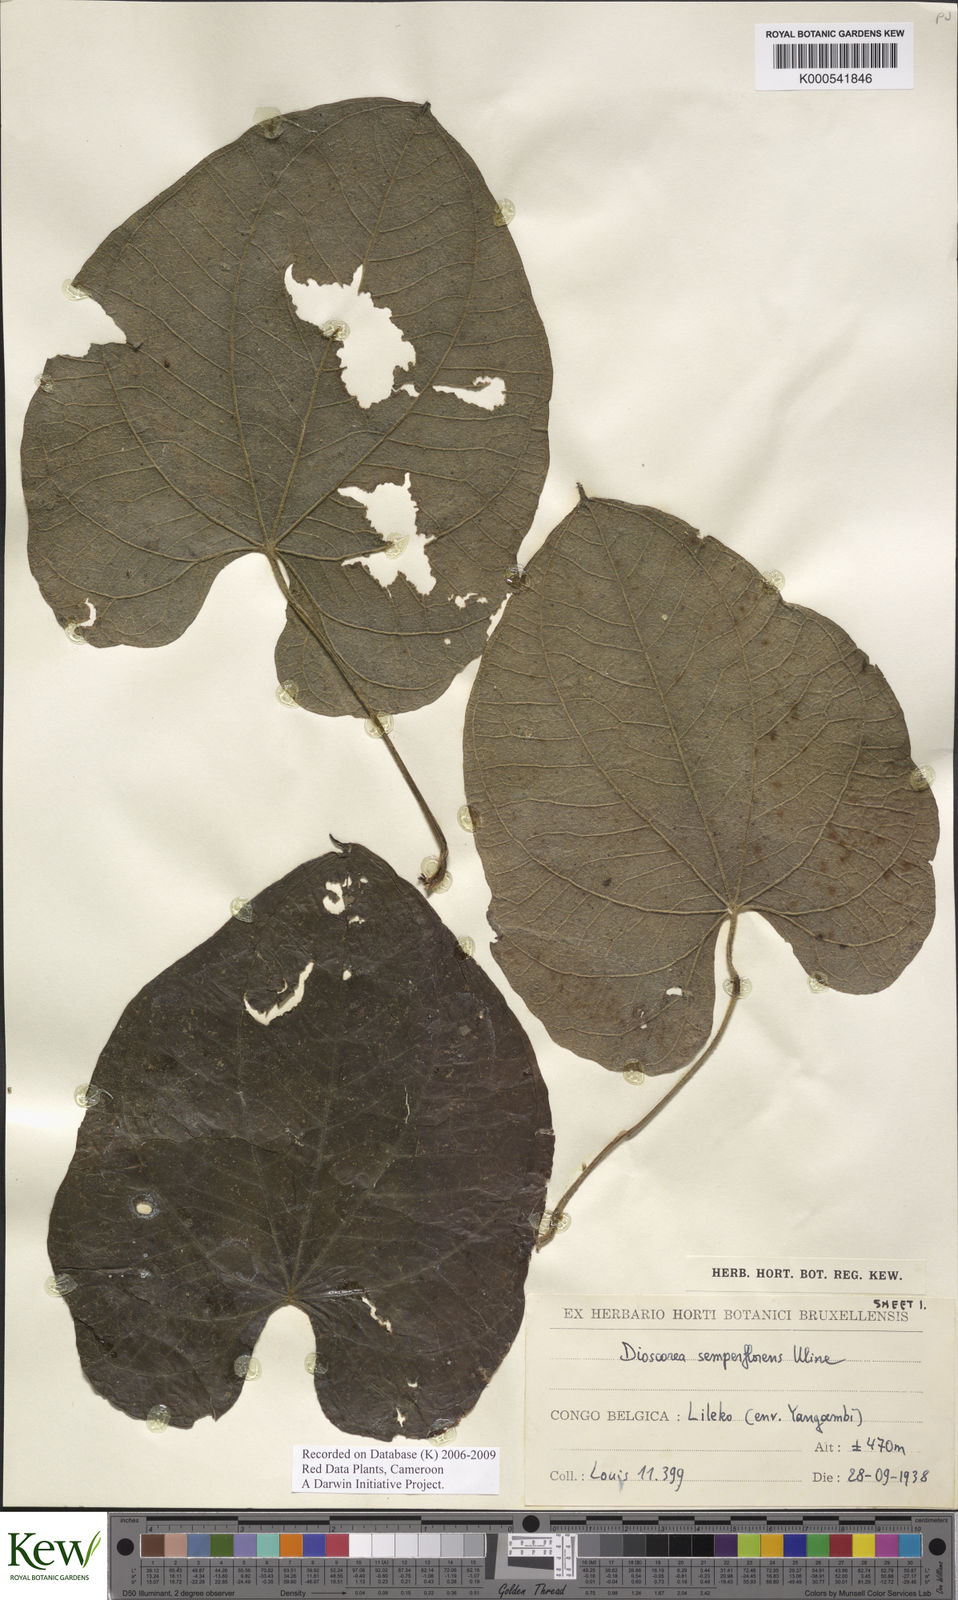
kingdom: Plantae
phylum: Tracheophyta
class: Liliopsida
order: Dioscoreales
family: Dioscoreaceae
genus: Dioscorea
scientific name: Dioscorea semperflorens
